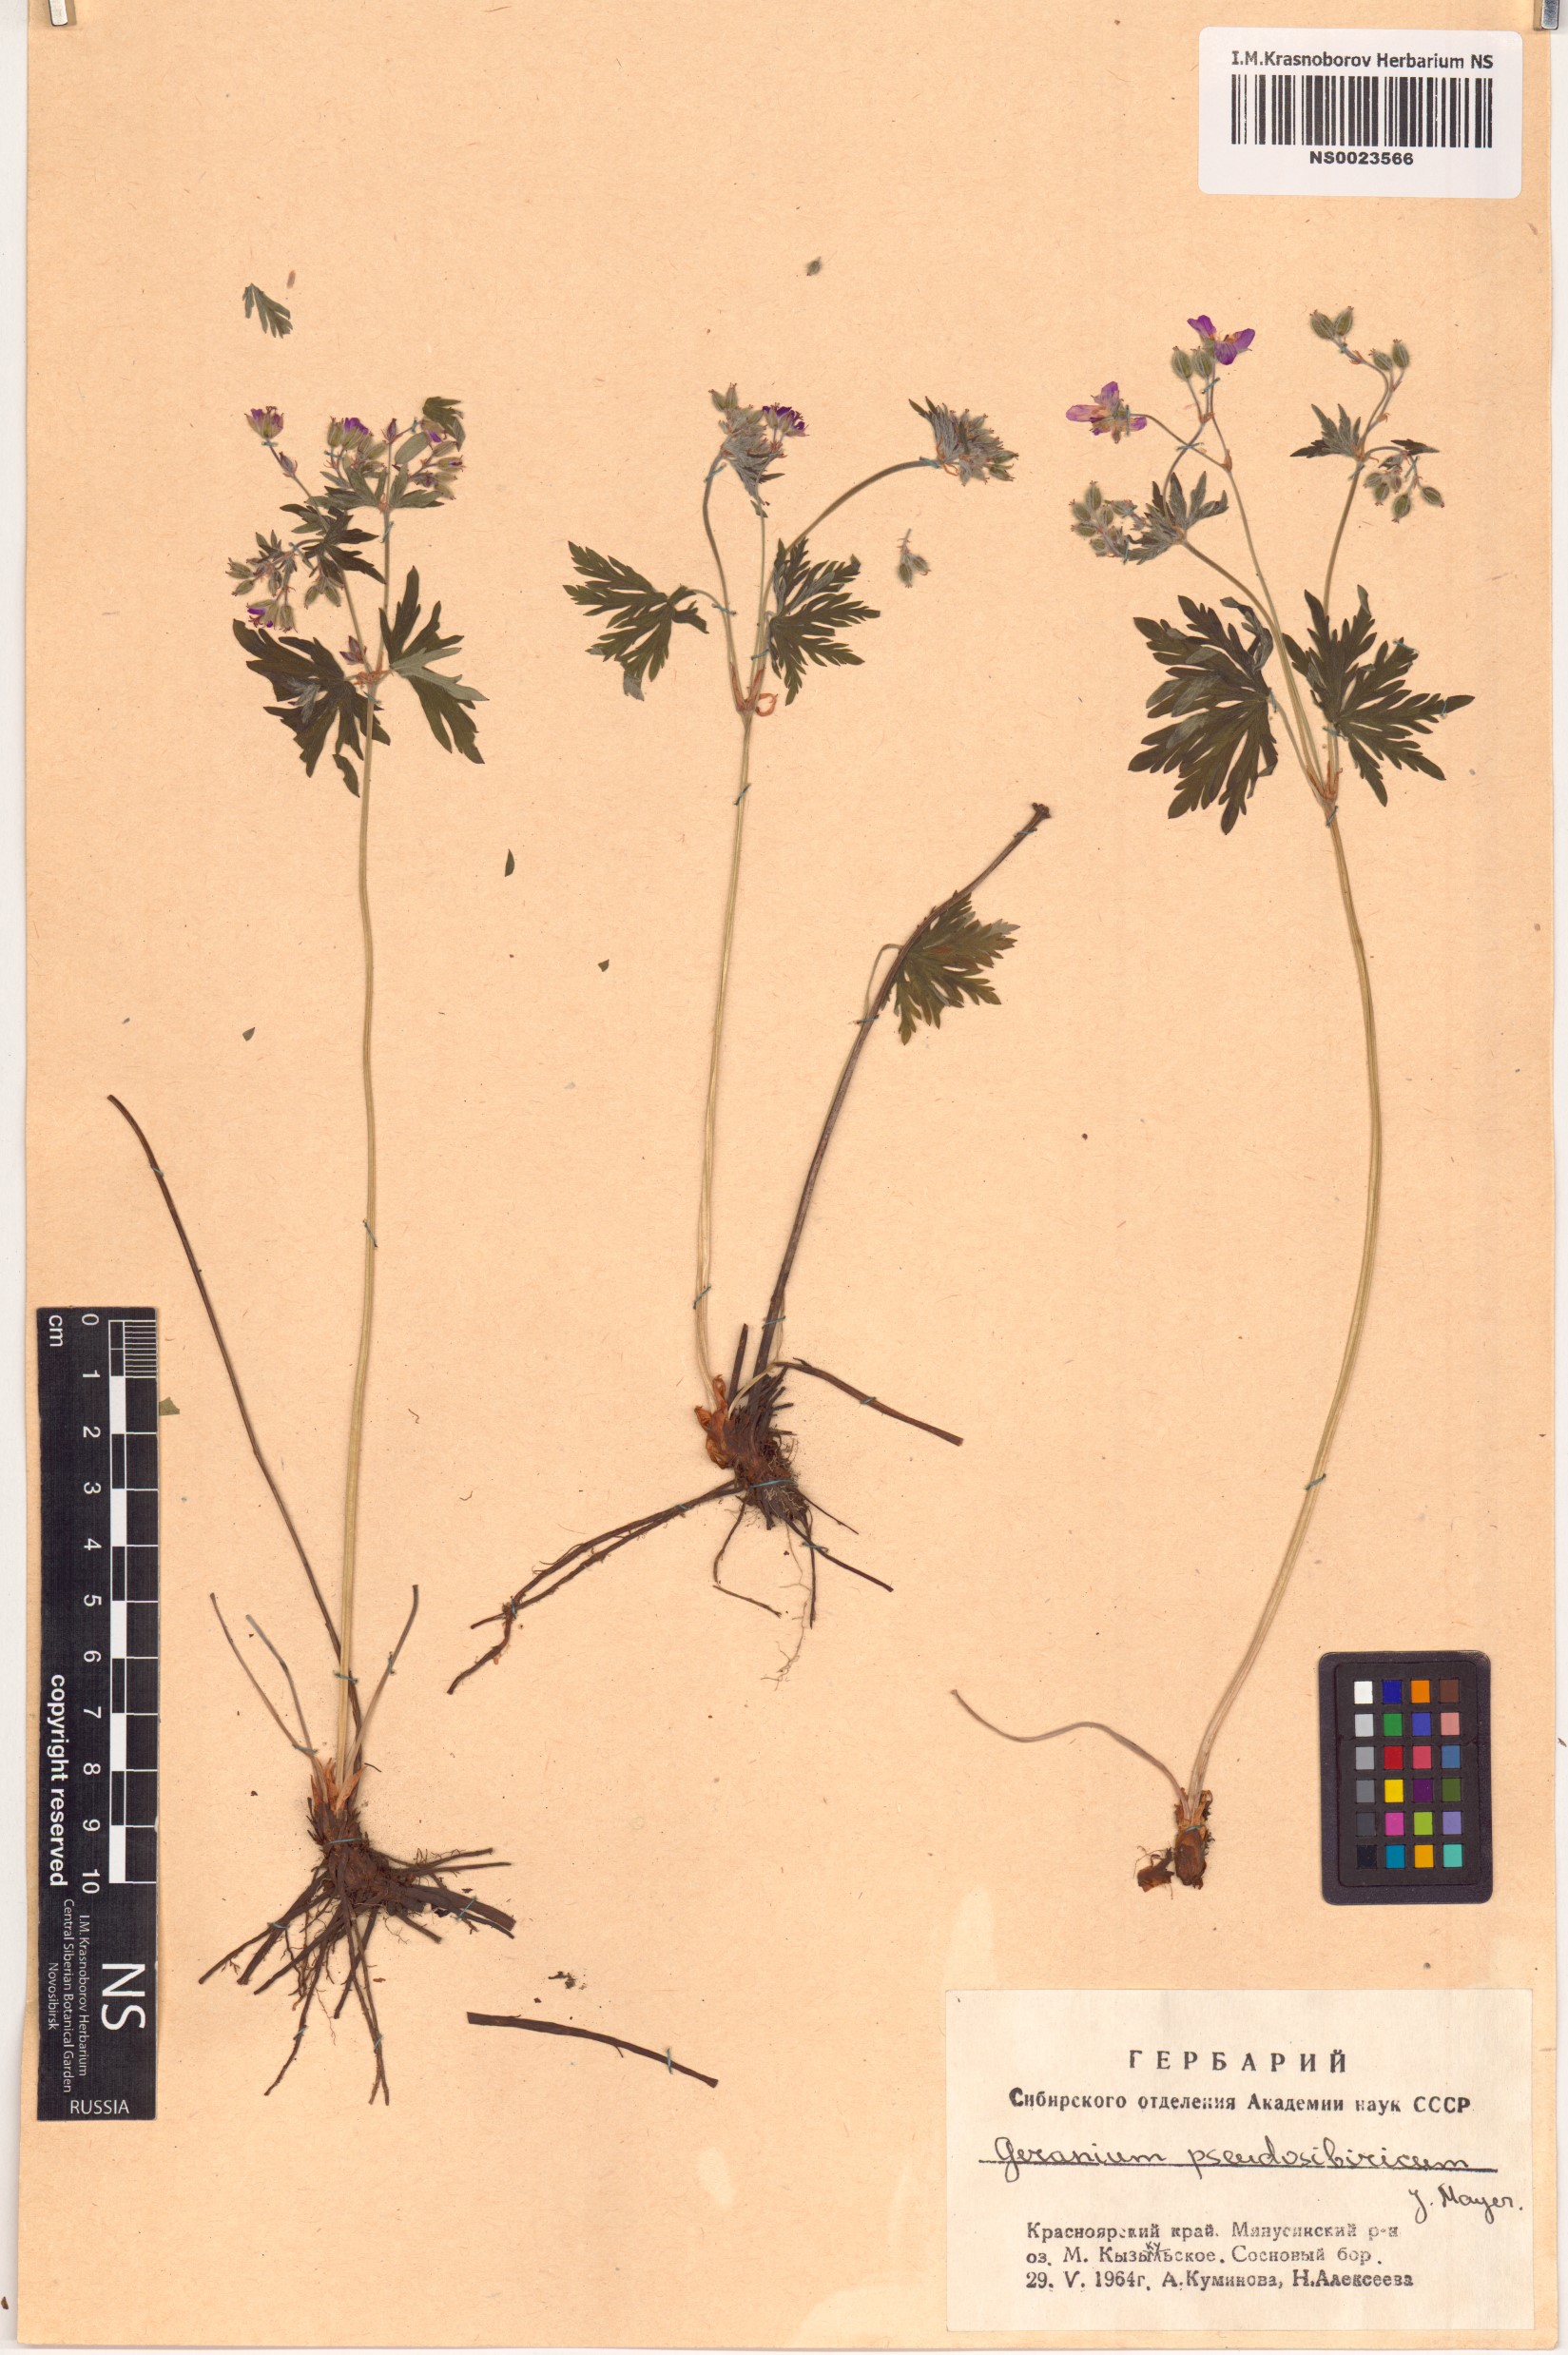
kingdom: Plantae
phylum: Tracheophyta
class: Magnoliopsida
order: Geraniales
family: Geraniaceae
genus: Geranium
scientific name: Geranium pseudosibiricum
